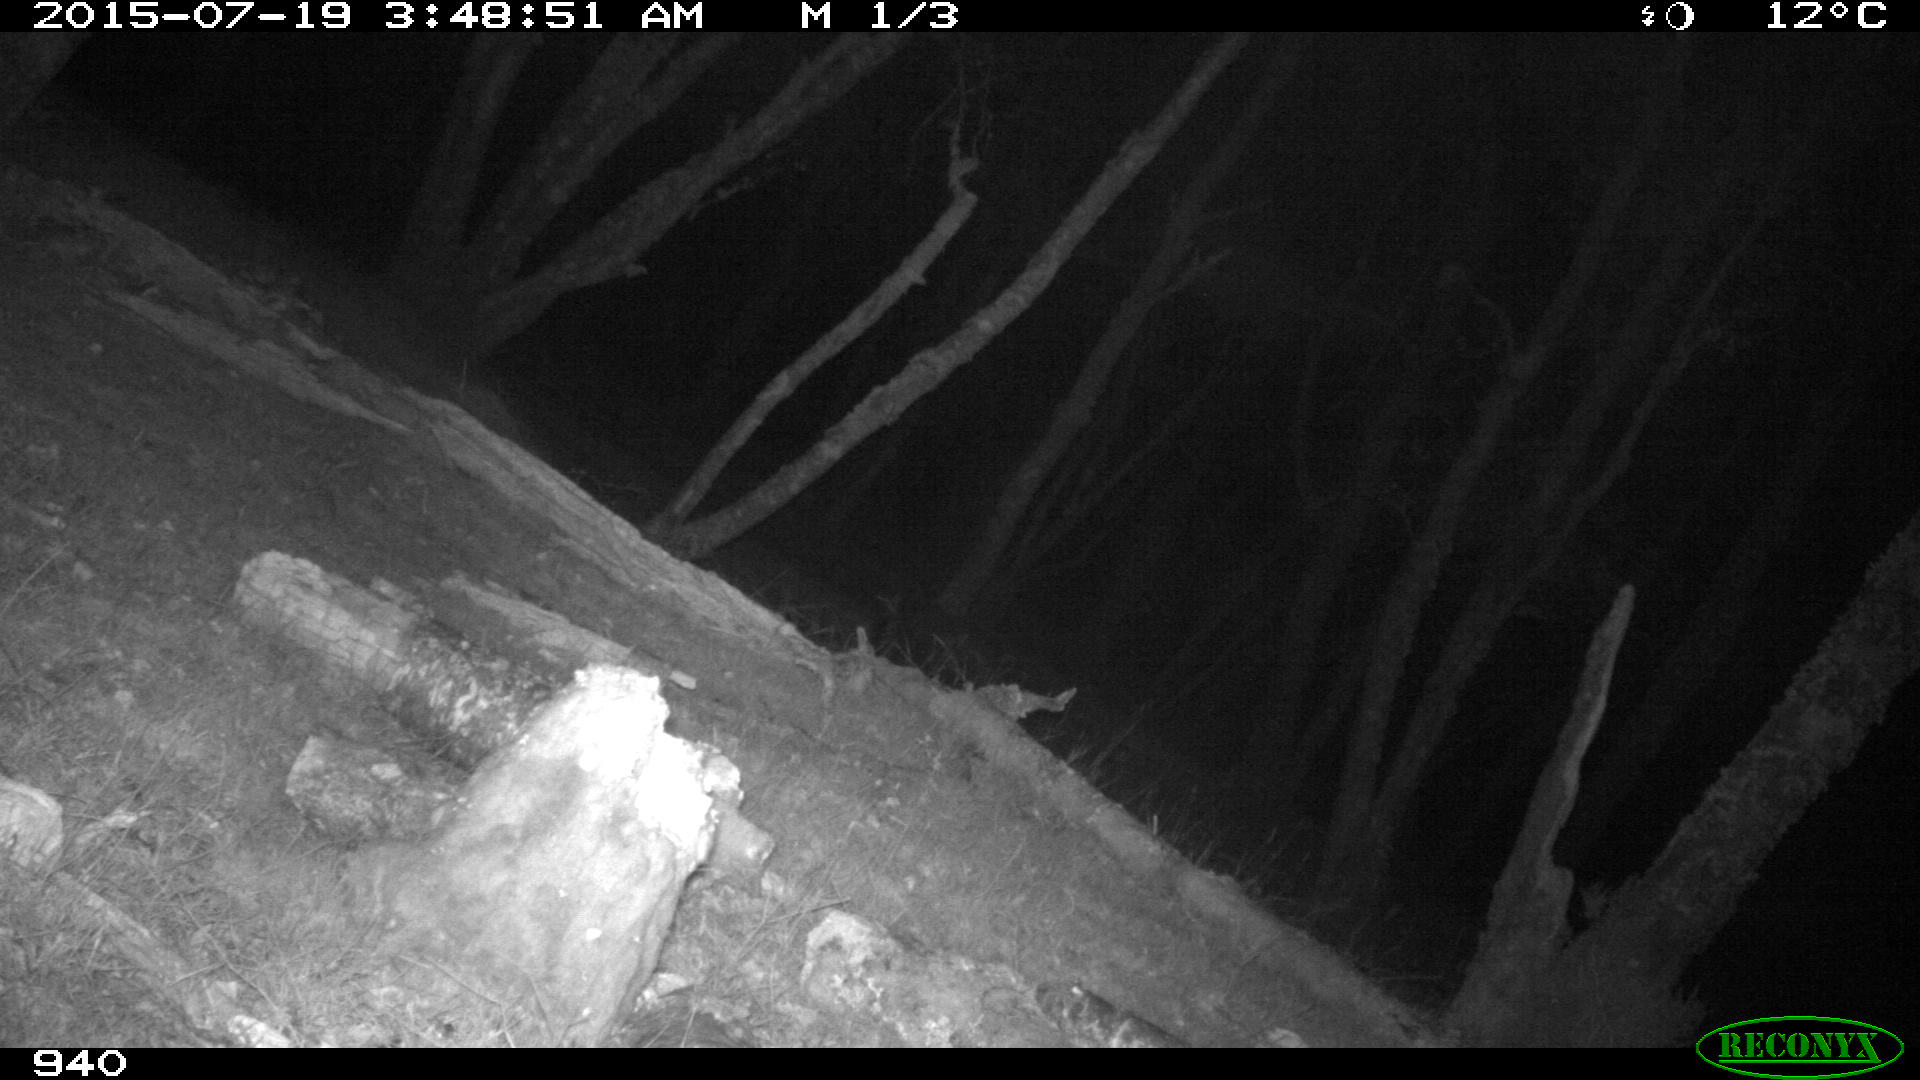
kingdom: Animalia
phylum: Chordata
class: Mammalia
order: Artiodactyla
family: Suidae
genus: Sus
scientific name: Sus scrofa
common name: Wild boar
